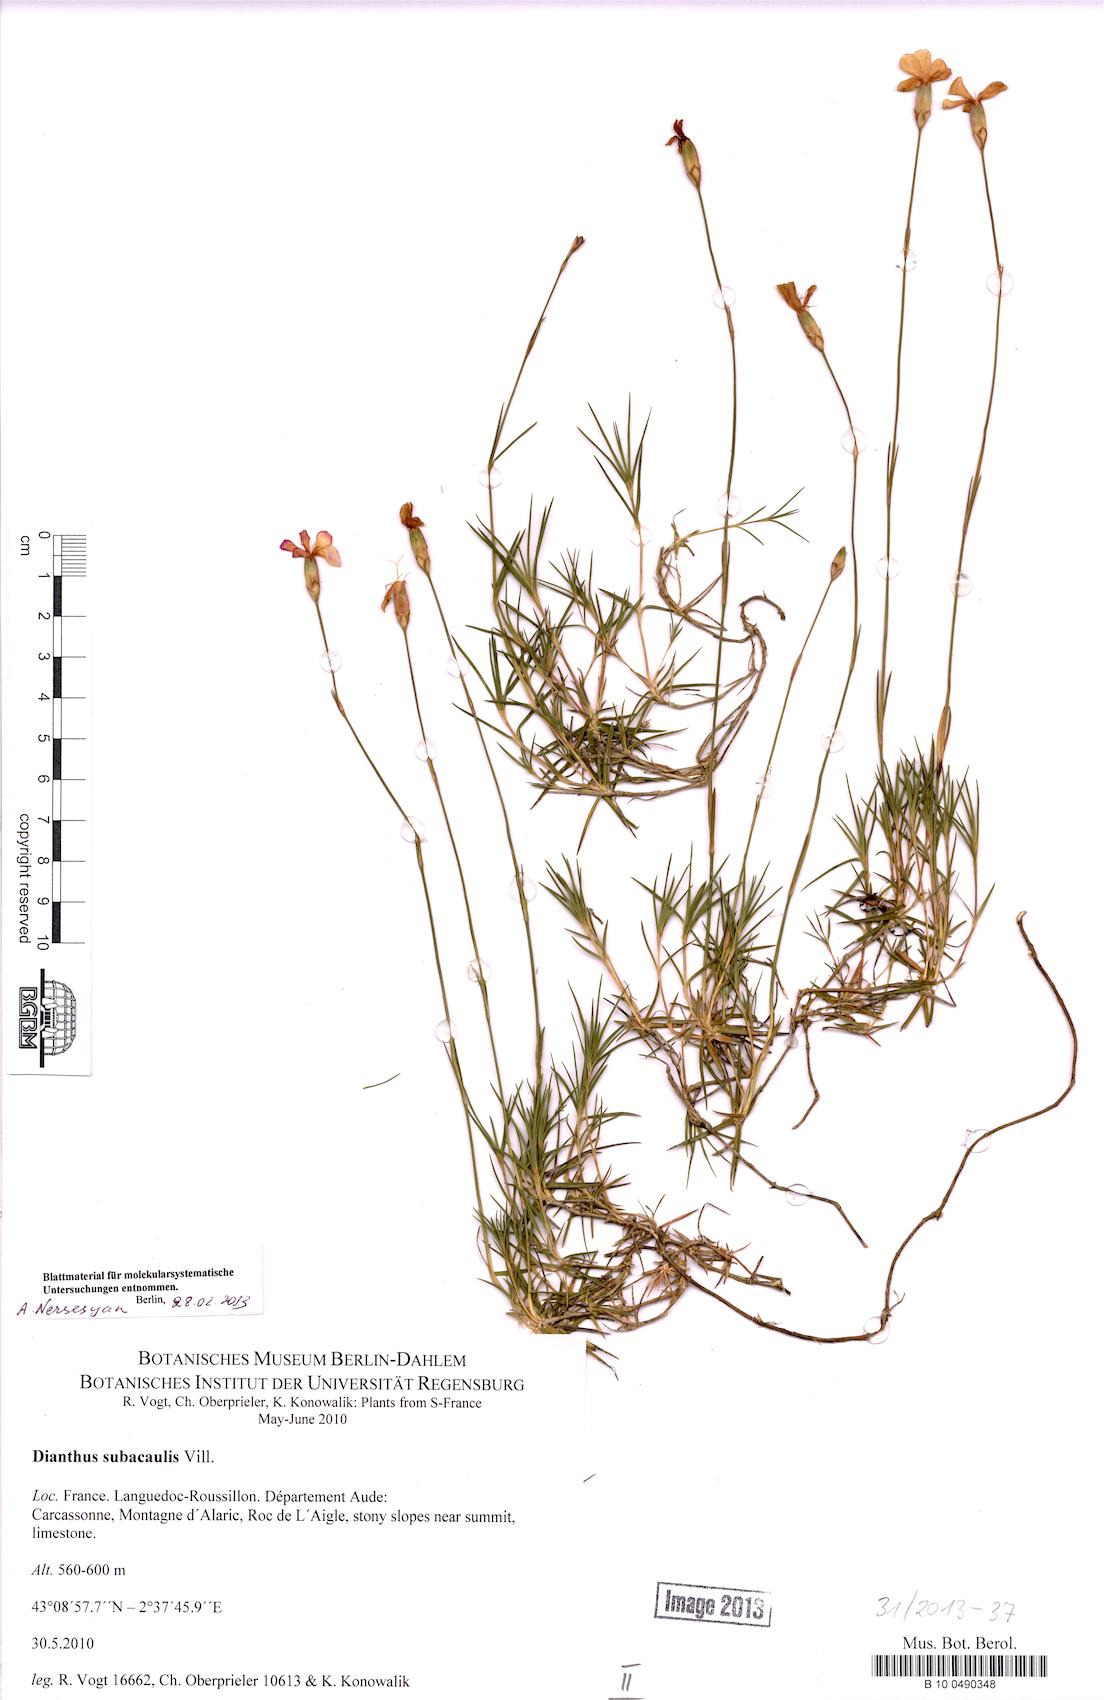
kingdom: Plantae
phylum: Tracheophyta
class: Magnoliopsida
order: Caryophyllales
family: Caryophyllaceae
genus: Dianthus
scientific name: Dianthus subacaulis
